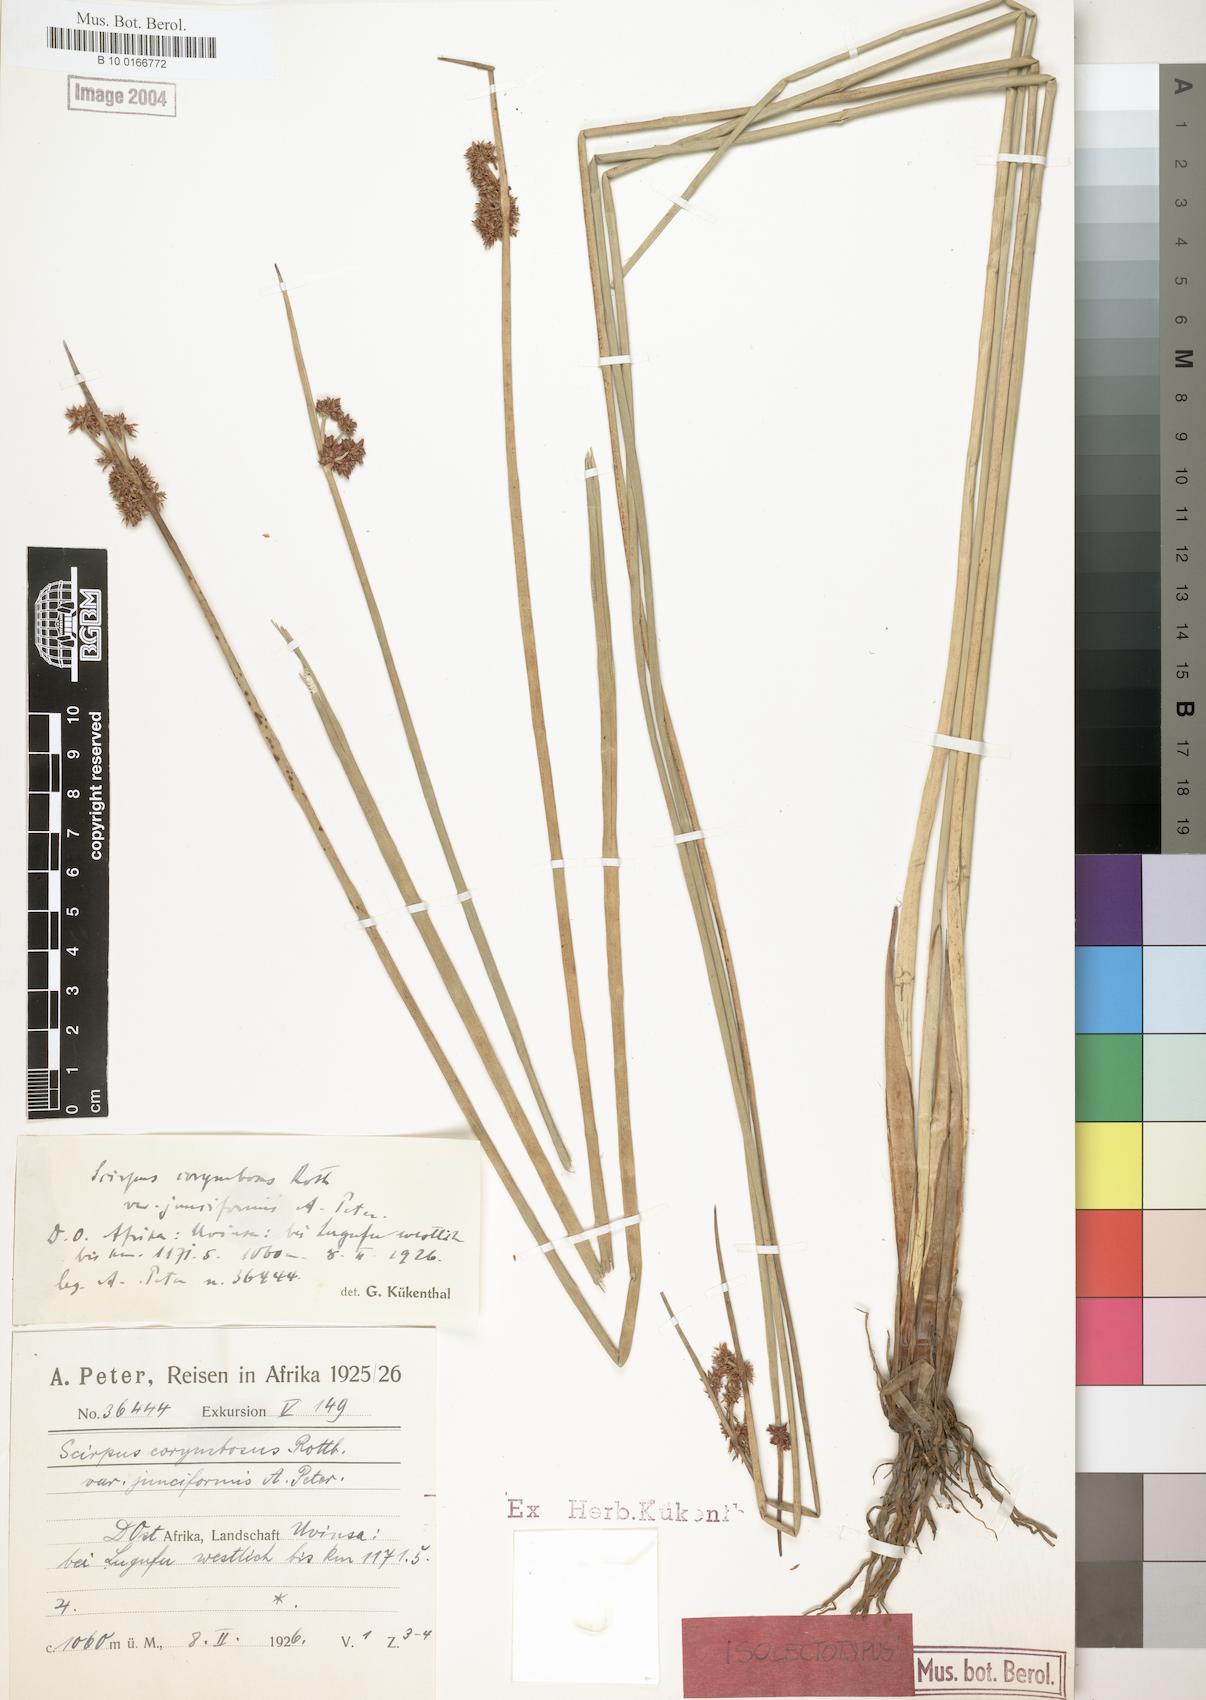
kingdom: Plantae
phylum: Tracheophyta
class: Liliopsida
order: Poales
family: Cyperaceae
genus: Schoenoplectiella
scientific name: Schoenoplectiella muricinux
